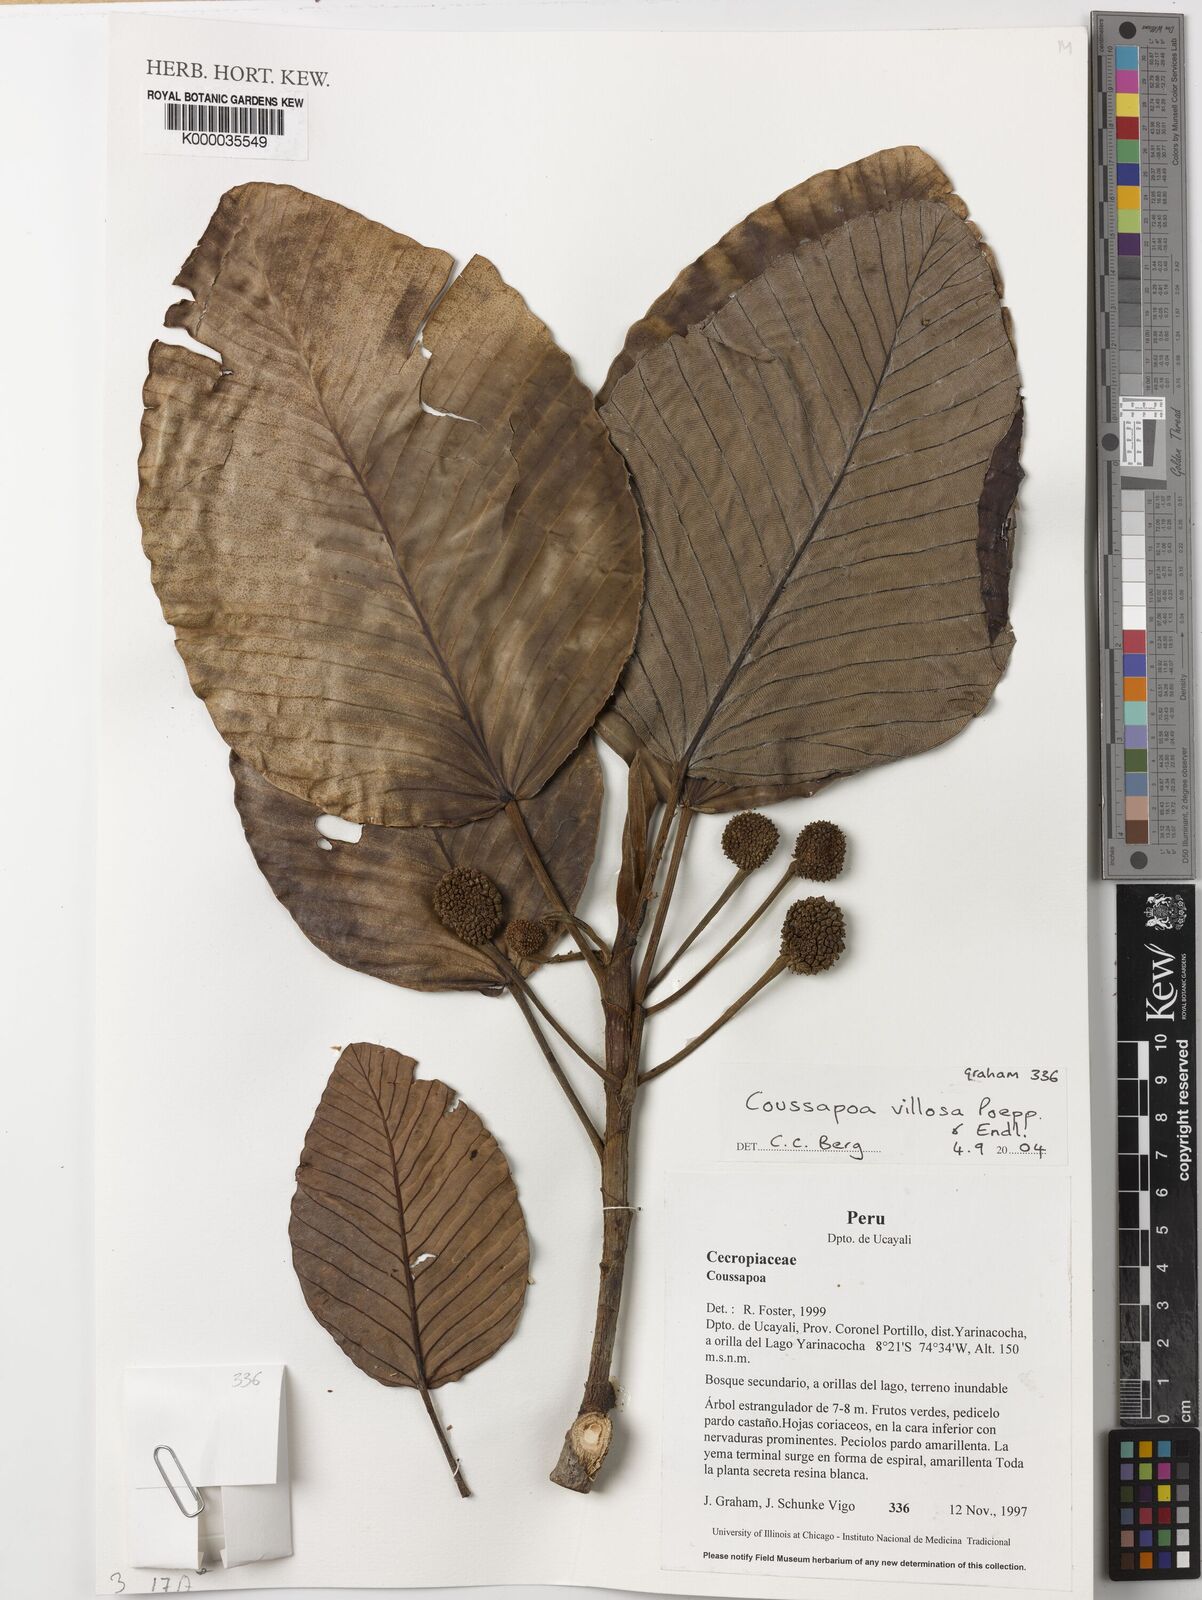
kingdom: Plantae
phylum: Tracheophyta
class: Magnoliopsida
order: Rosales
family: Urticaceae
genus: Coussapoa
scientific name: Coussapoa villosa
